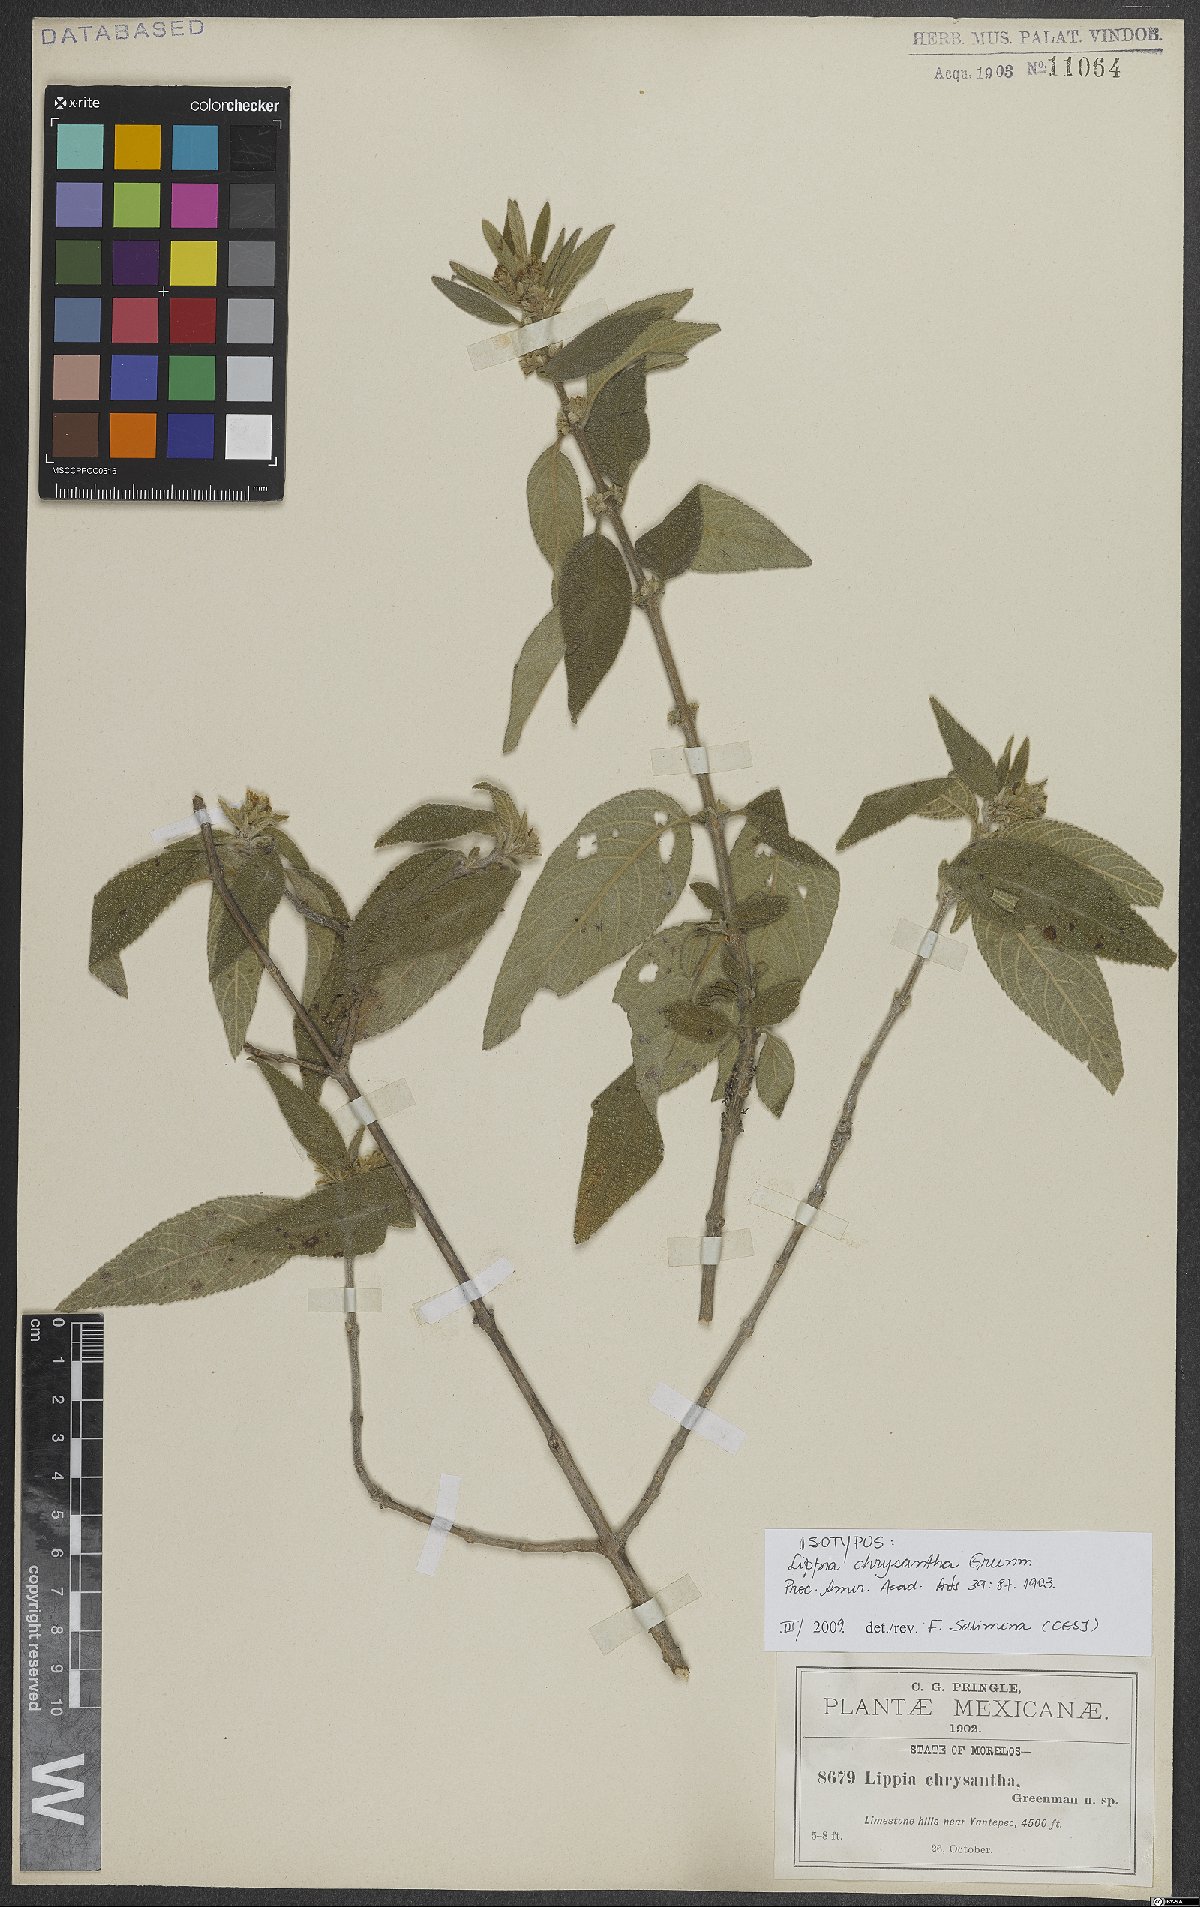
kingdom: Plantae
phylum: Tracheophyta
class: Magnoliopsida
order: Lamiales
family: Verbenaceae
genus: Lippia
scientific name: Lippia chrysantha
